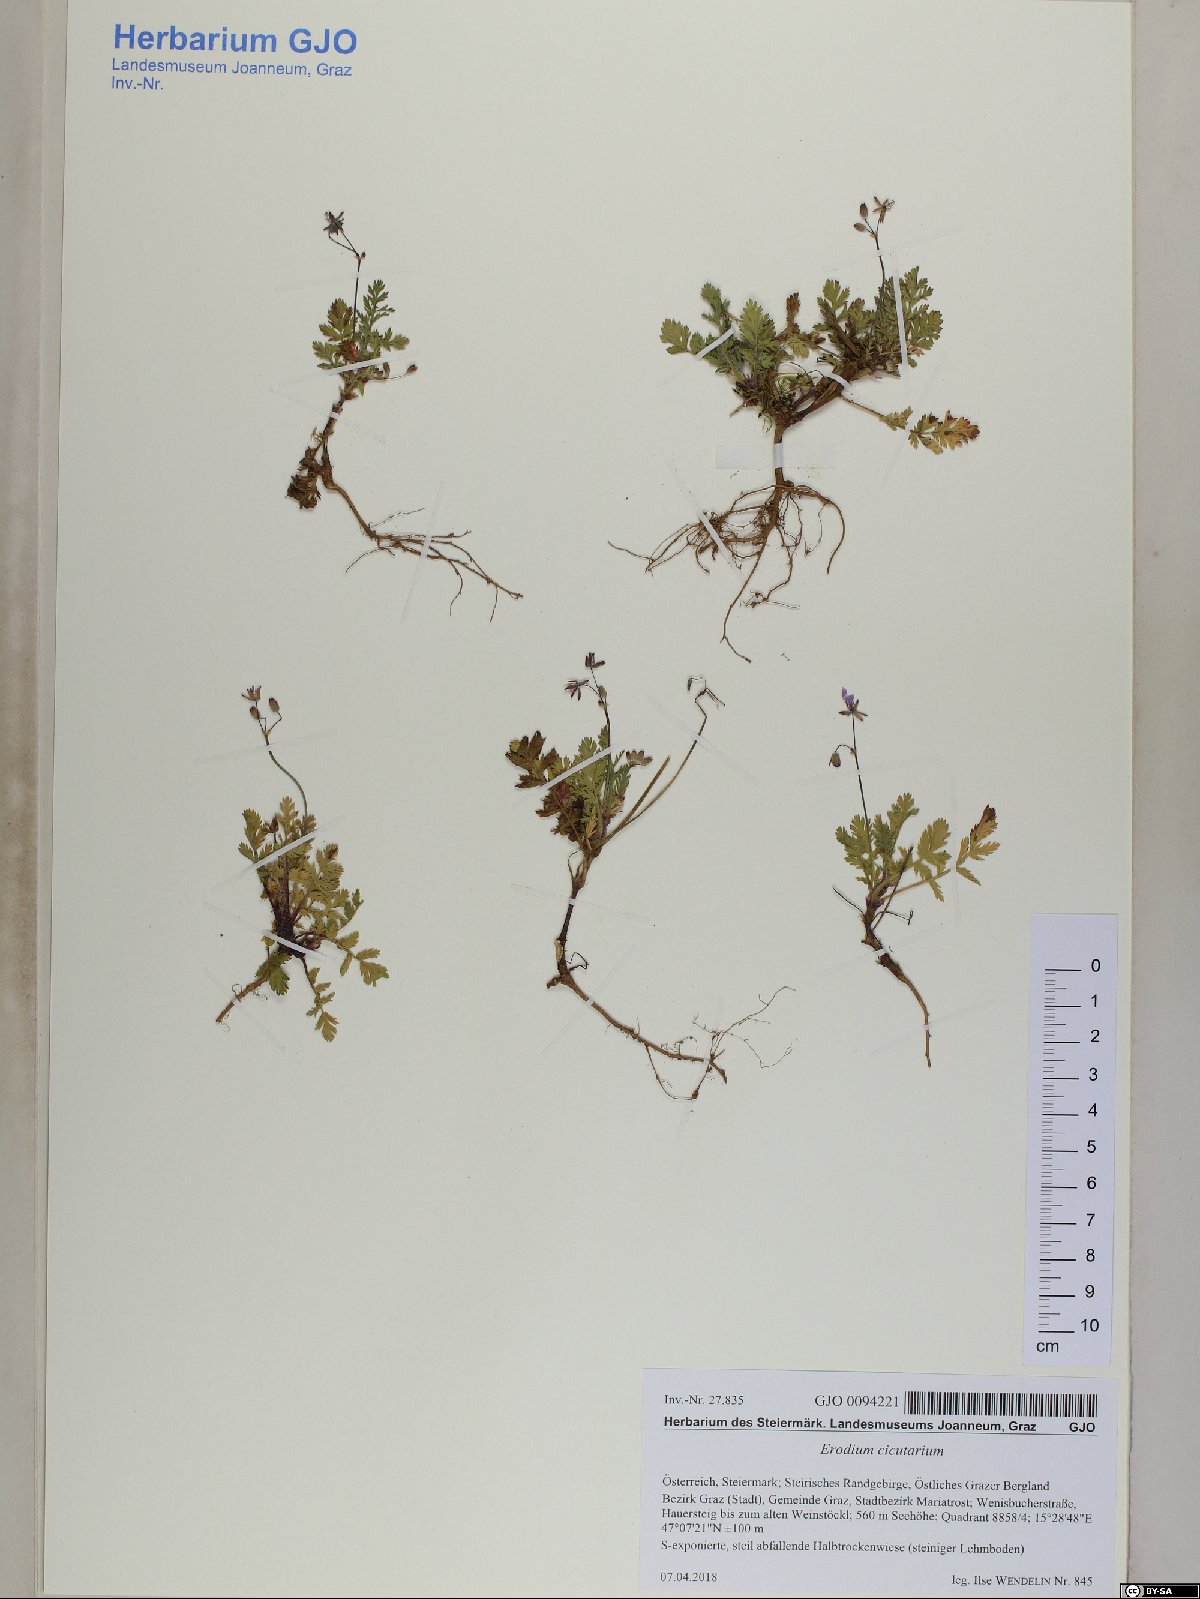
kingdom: Plantae
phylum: Tracheophyta
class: Magnoliopsida
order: Geraniales
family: Geraniaceae
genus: Erodium
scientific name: Erodium cicutarium
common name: Common stork's-bill
